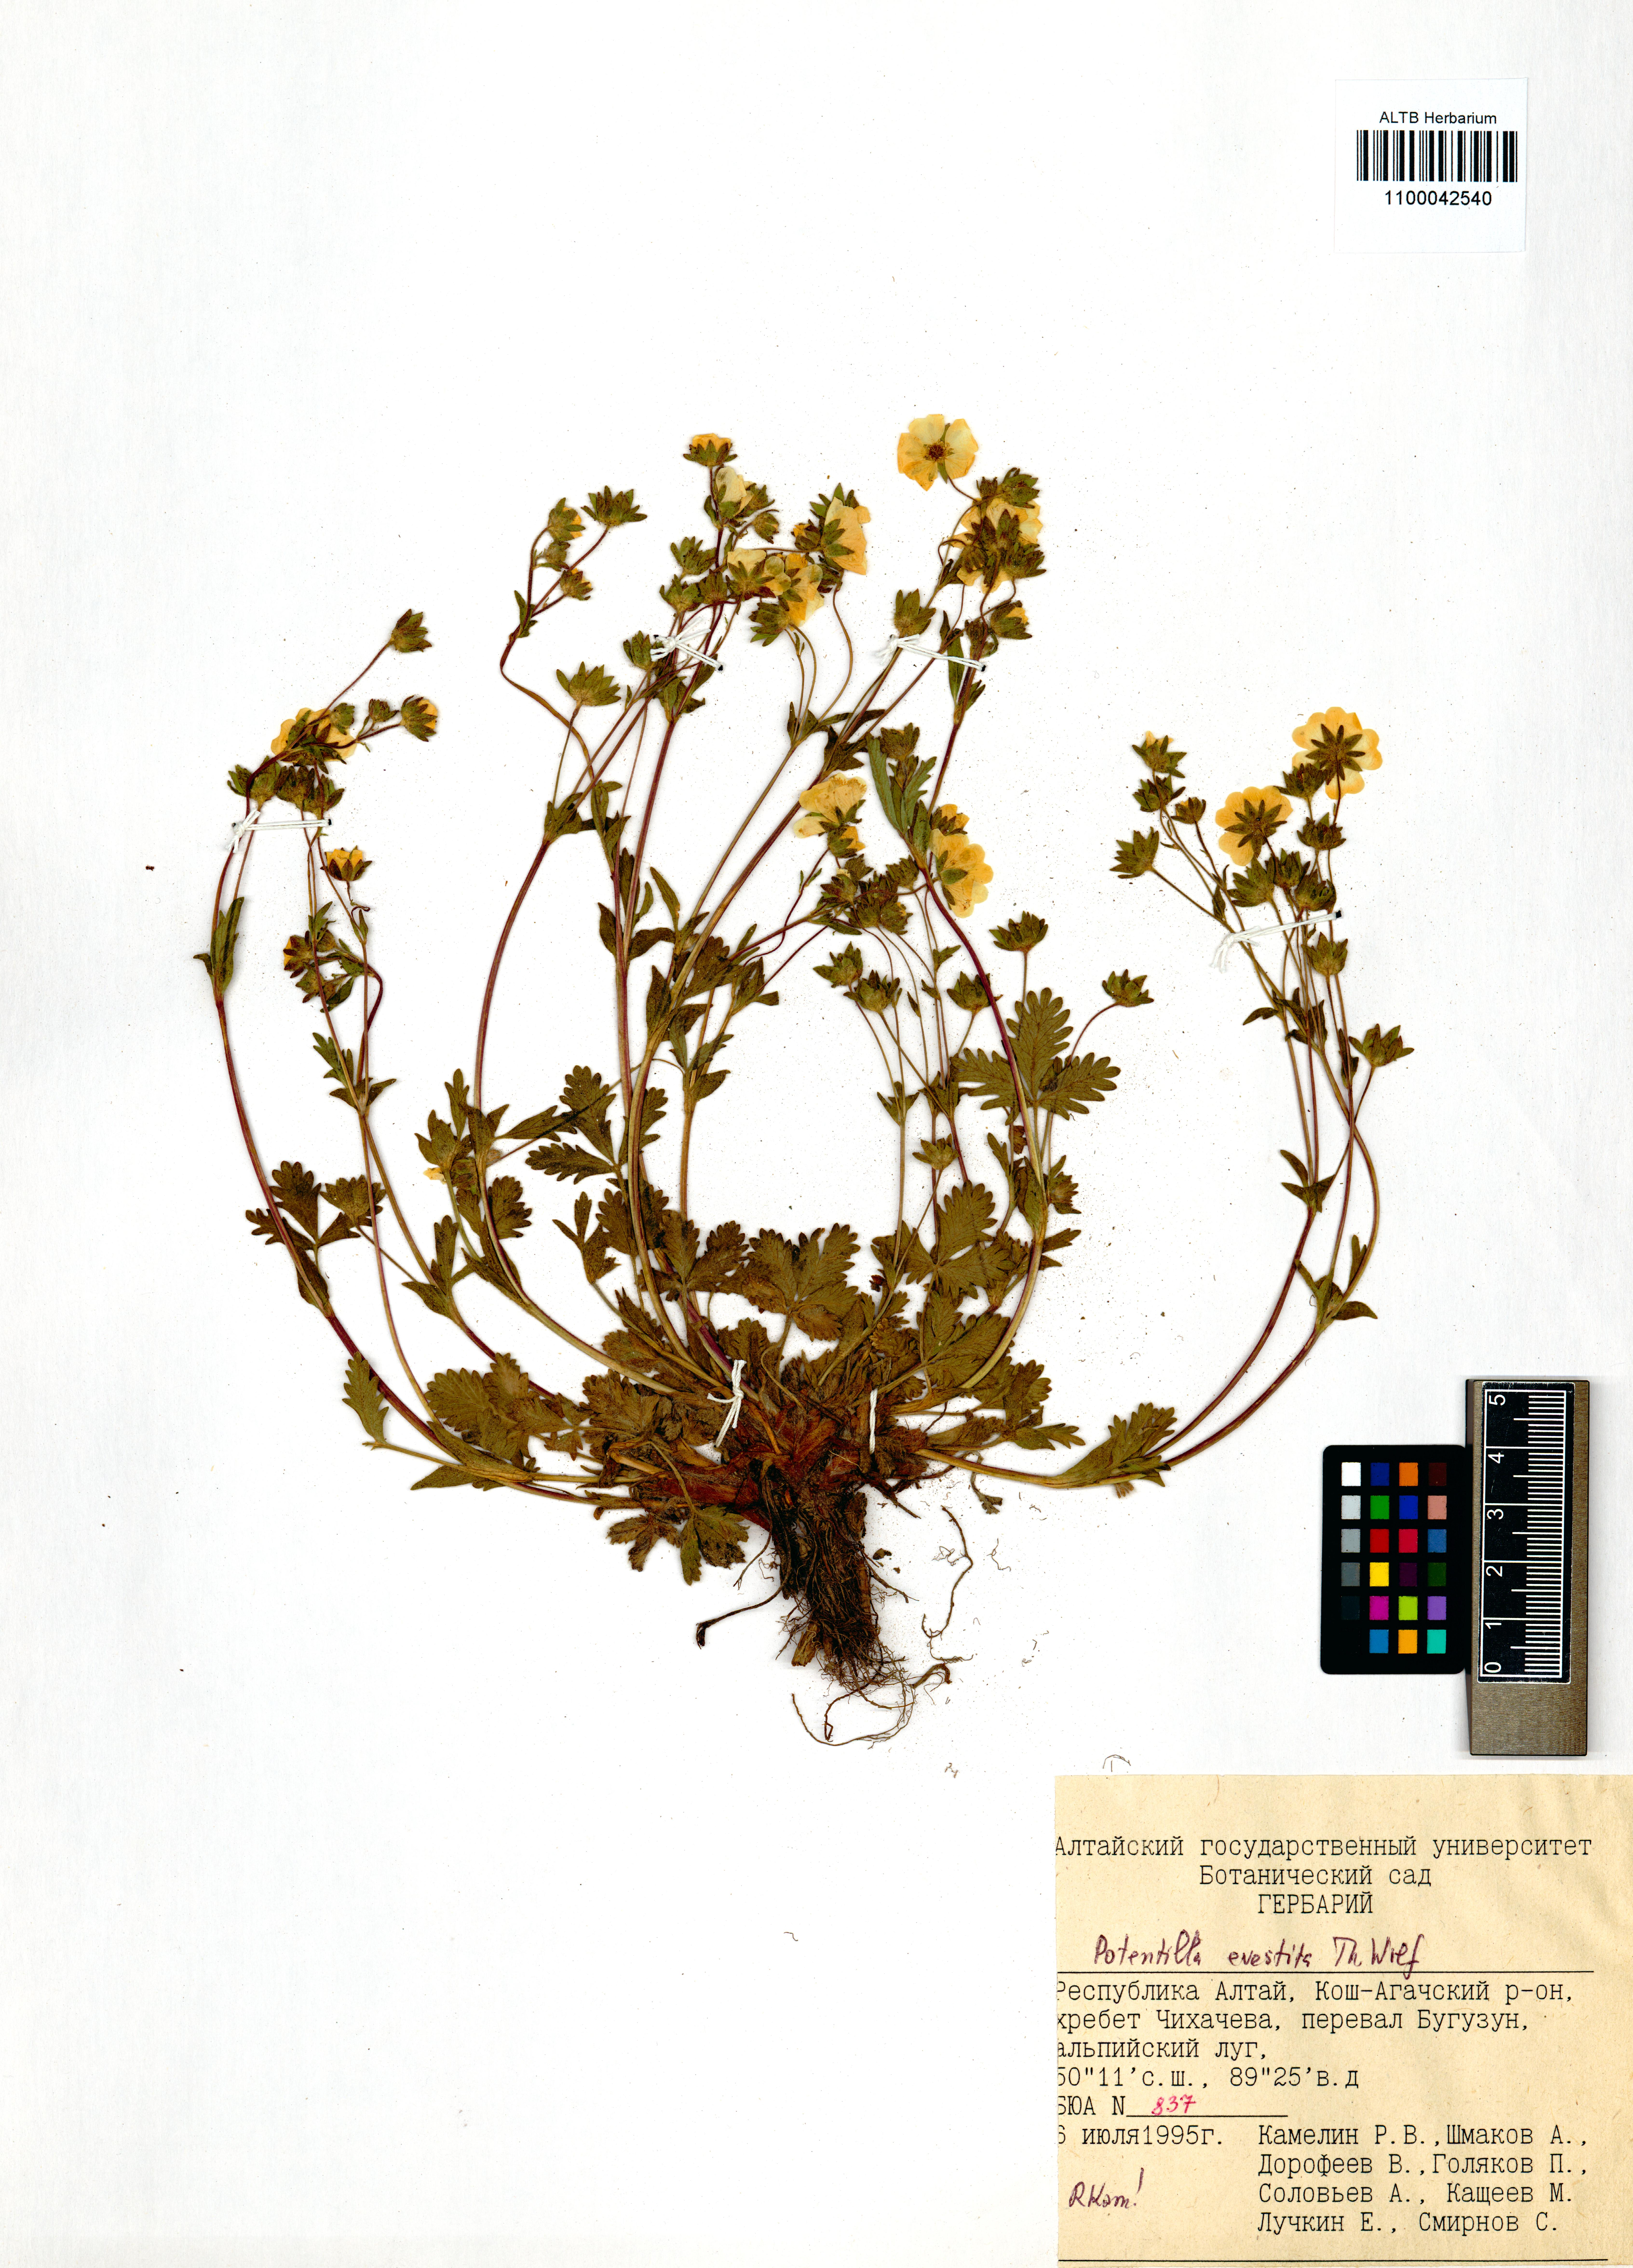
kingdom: Plantae
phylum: Tracheophyta
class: Magnoliopsida
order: Rosales
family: Rosaceae
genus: Potentilla
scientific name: Potentilla evestita
